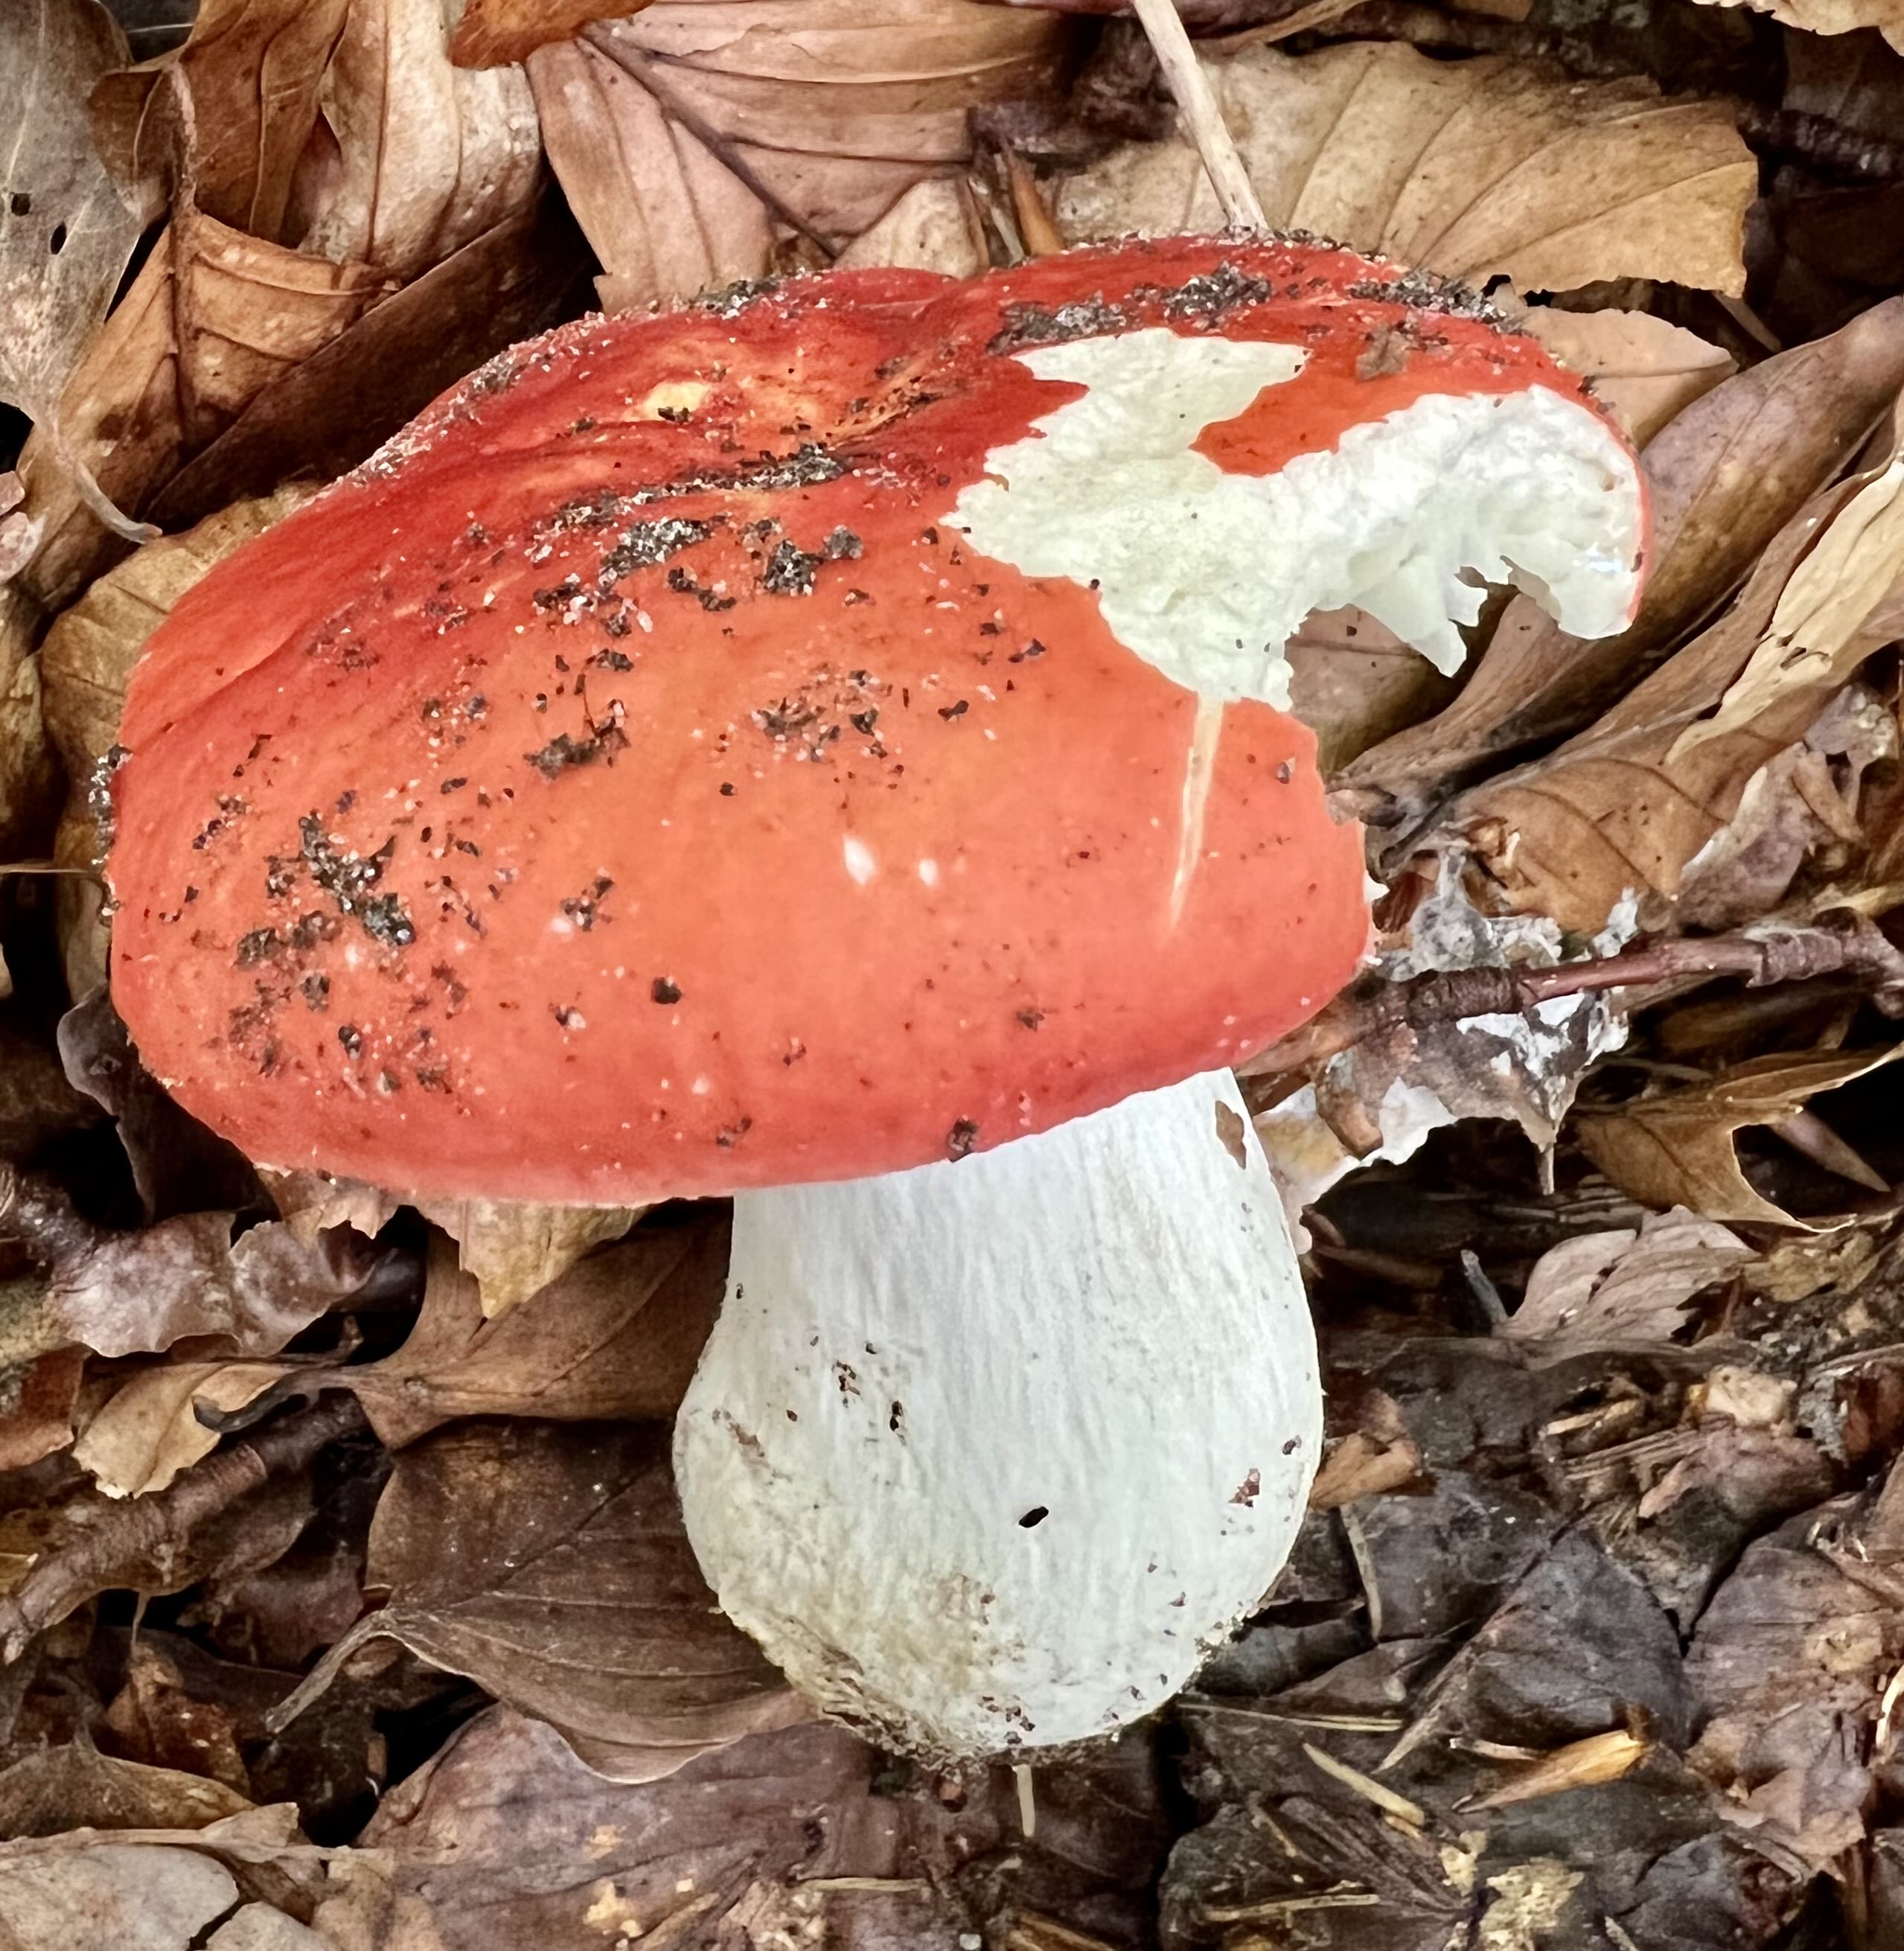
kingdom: Fungi
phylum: Basidiomycota
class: Agaricomycetes
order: Russulales
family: Russulaceae
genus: Russula
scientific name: Russula rosea
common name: fastkødet skørhat
